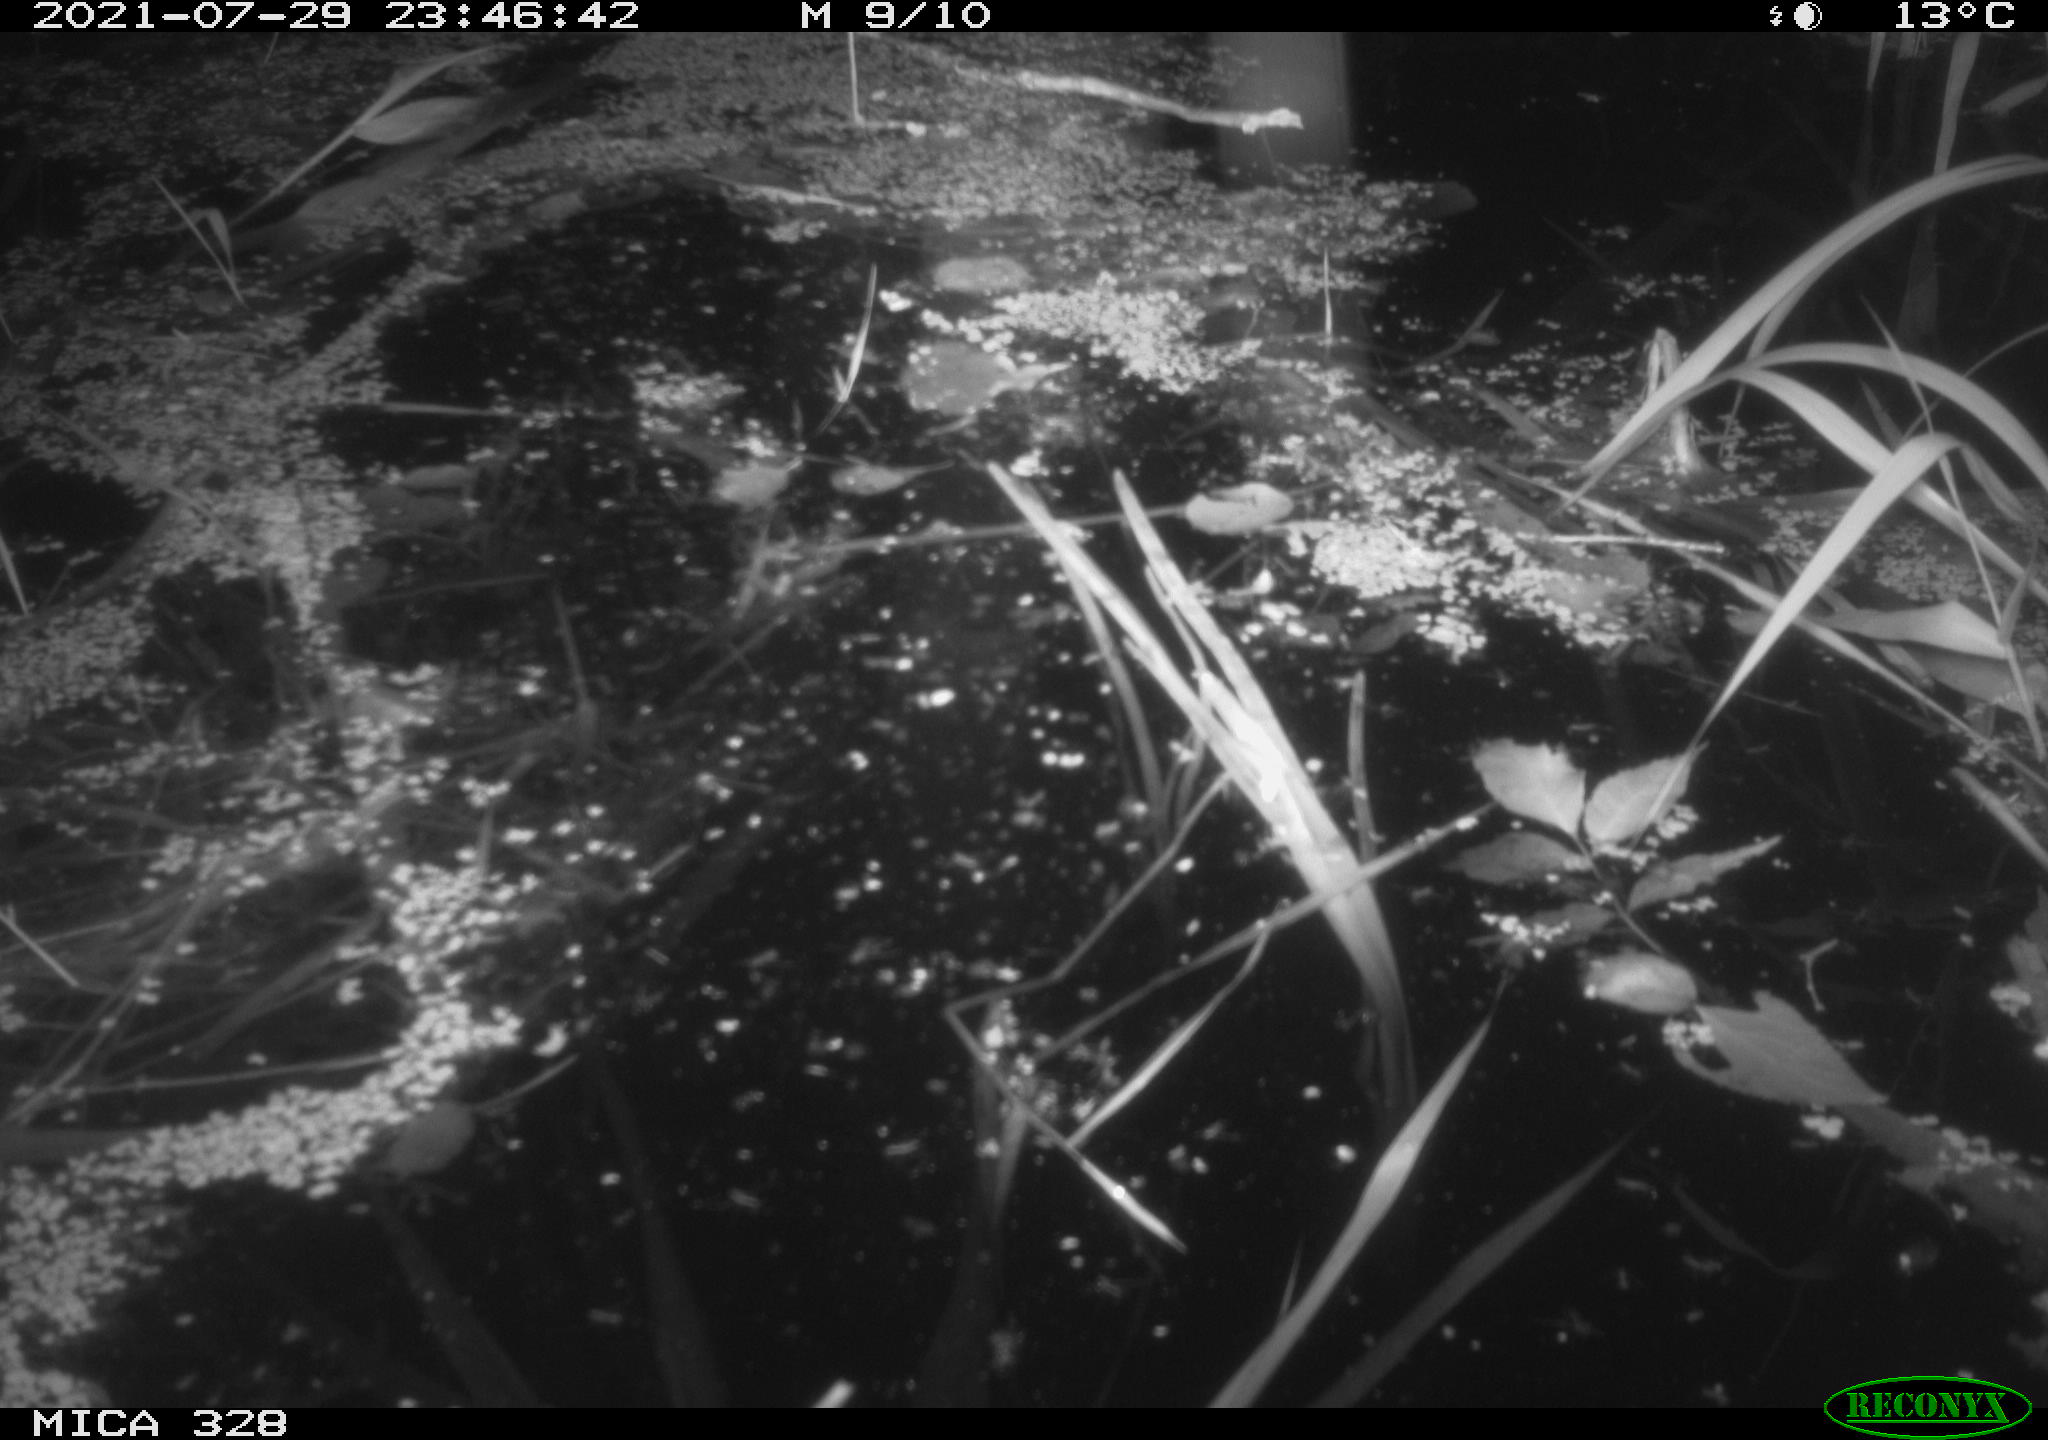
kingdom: Animalia
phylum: Chordata
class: Mammalia
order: Rodentia
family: Cricetidae
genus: Ondatra
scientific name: Ondatra zibethicus
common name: Muskrat
